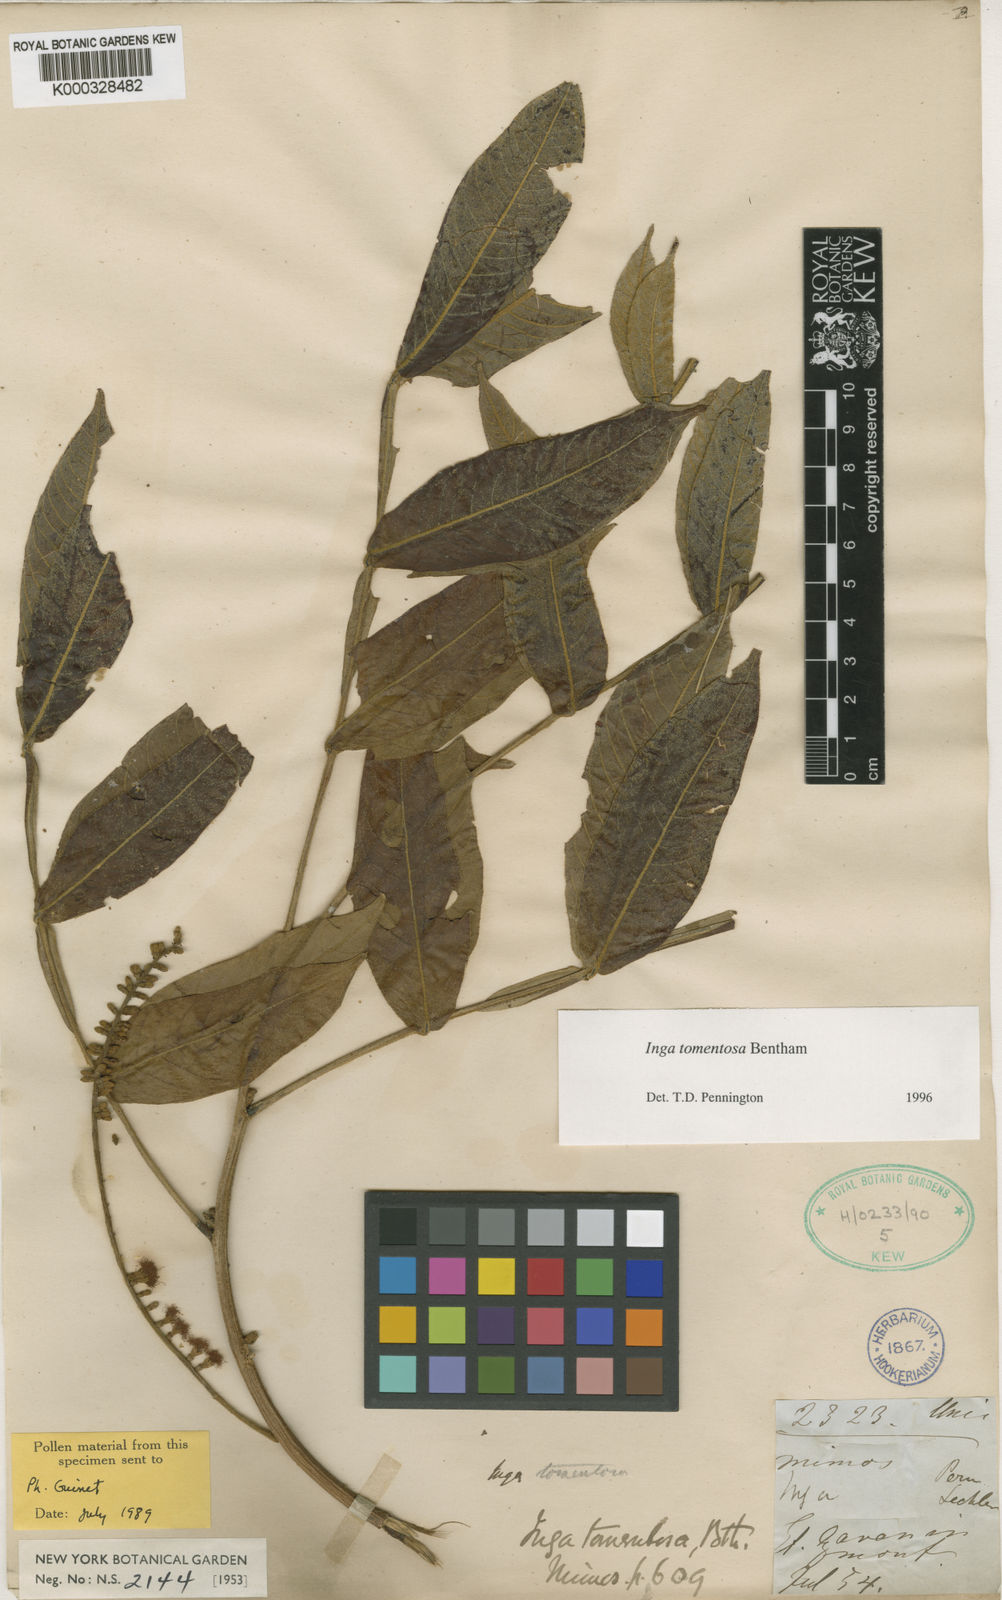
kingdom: Plantae
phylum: Tracheophyta
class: Magnoliopsida
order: Fabales
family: Fabaceae
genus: Inga
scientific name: Inga tomentosa
